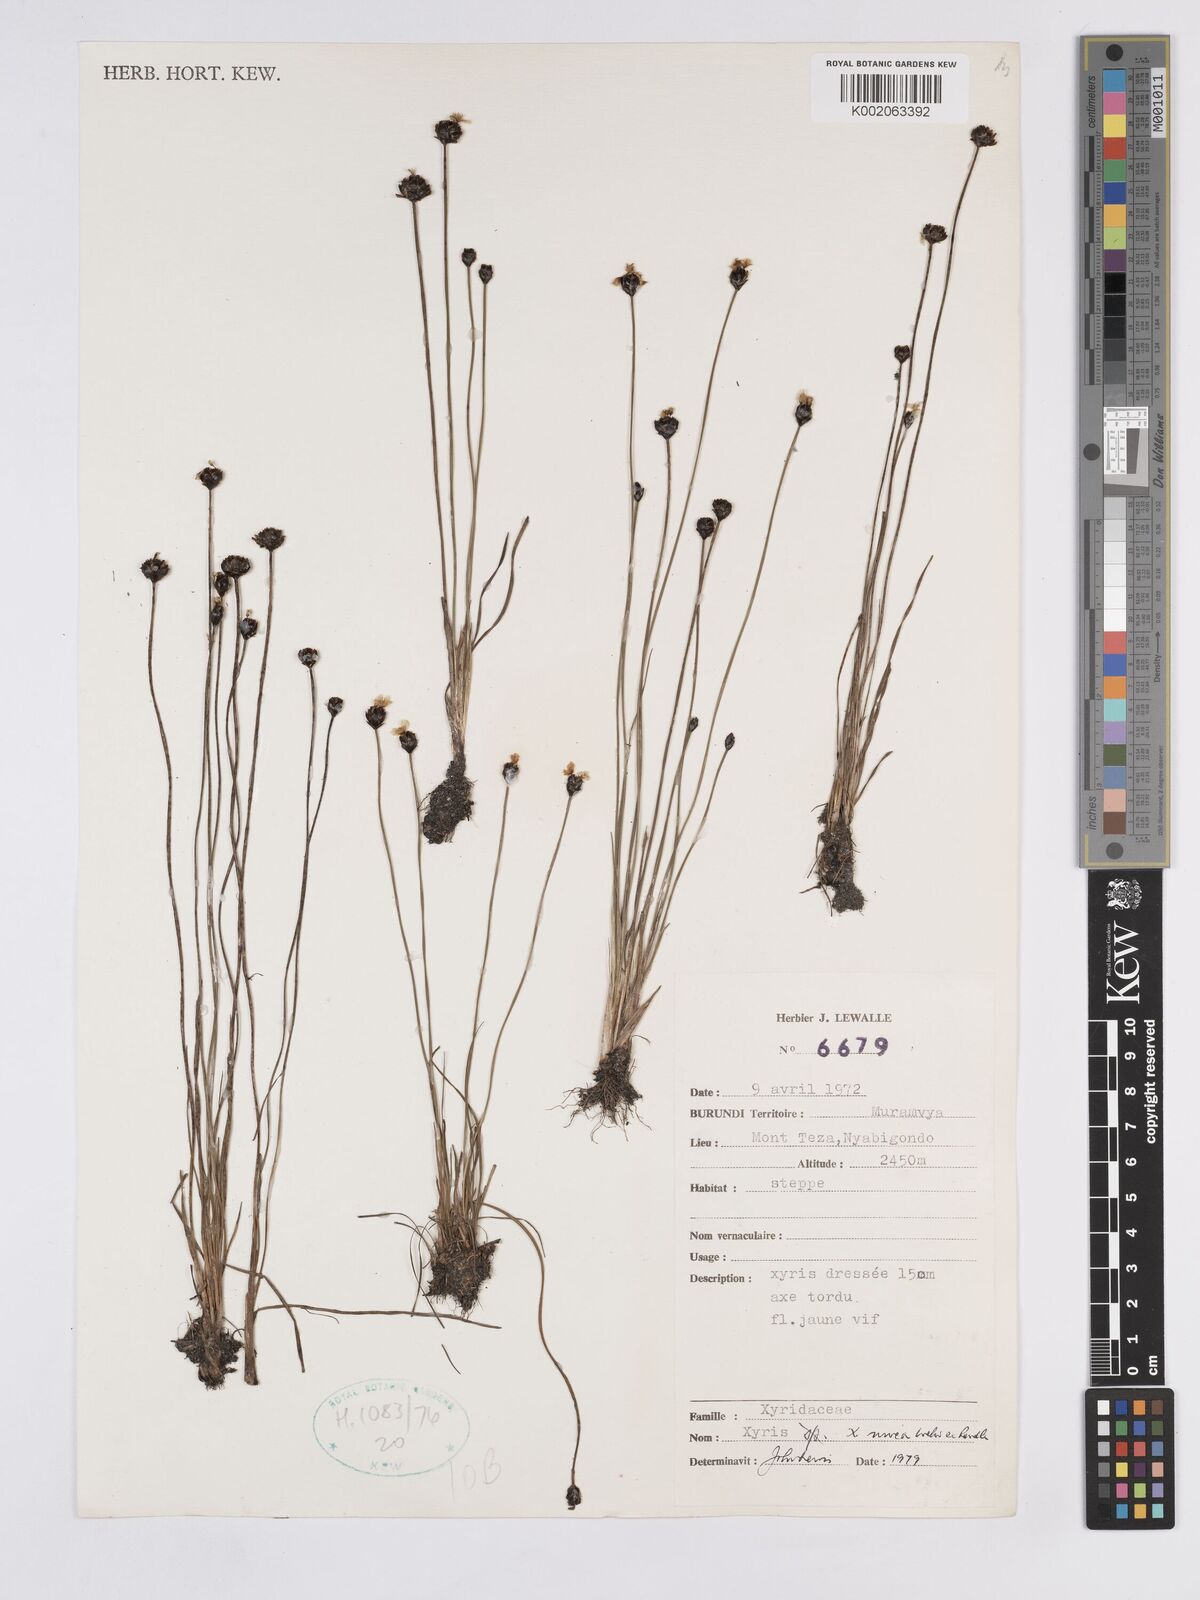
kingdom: Plantae
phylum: Tracheophyta
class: Liliopsida
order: Poales
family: Xyridaceae
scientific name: Xyridaceae
